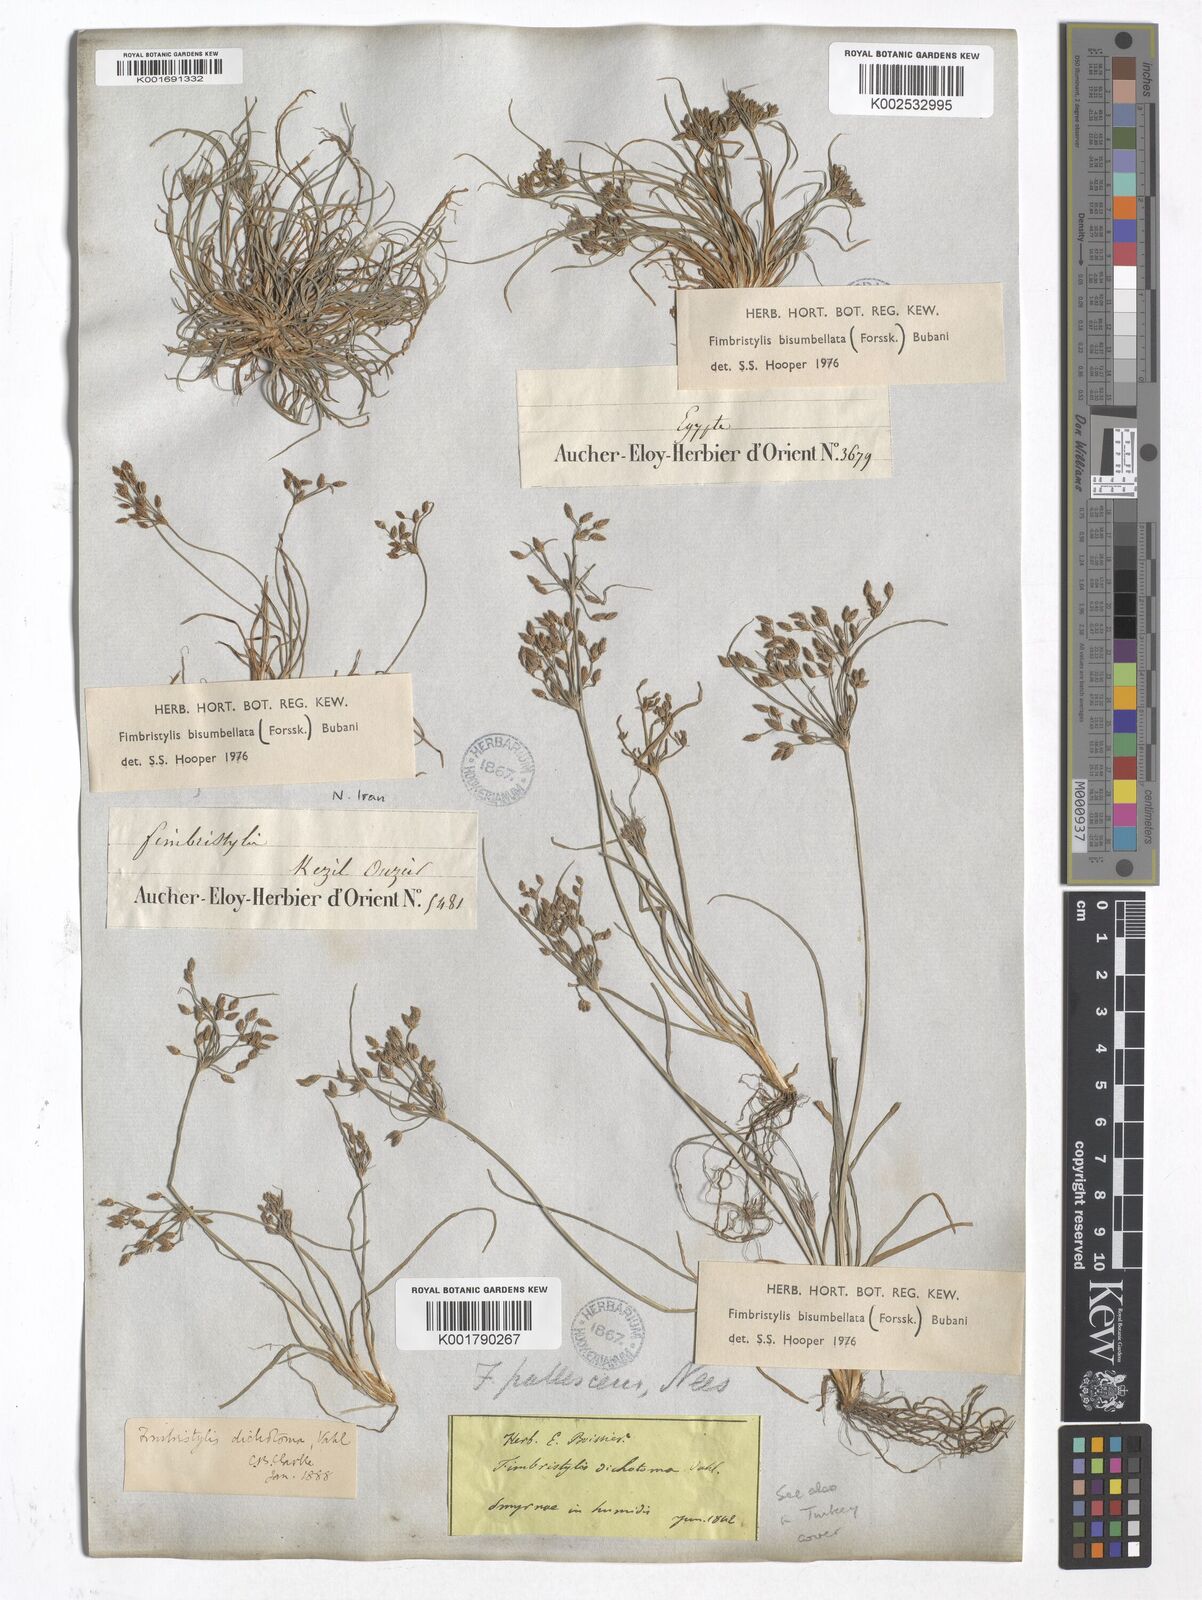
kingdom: Plantae
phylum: Tracheophyta
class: Liliopsida
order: Poales
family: Cyperaceae
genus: Fimbristylis
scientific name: Fimbristylis bisumbellata
